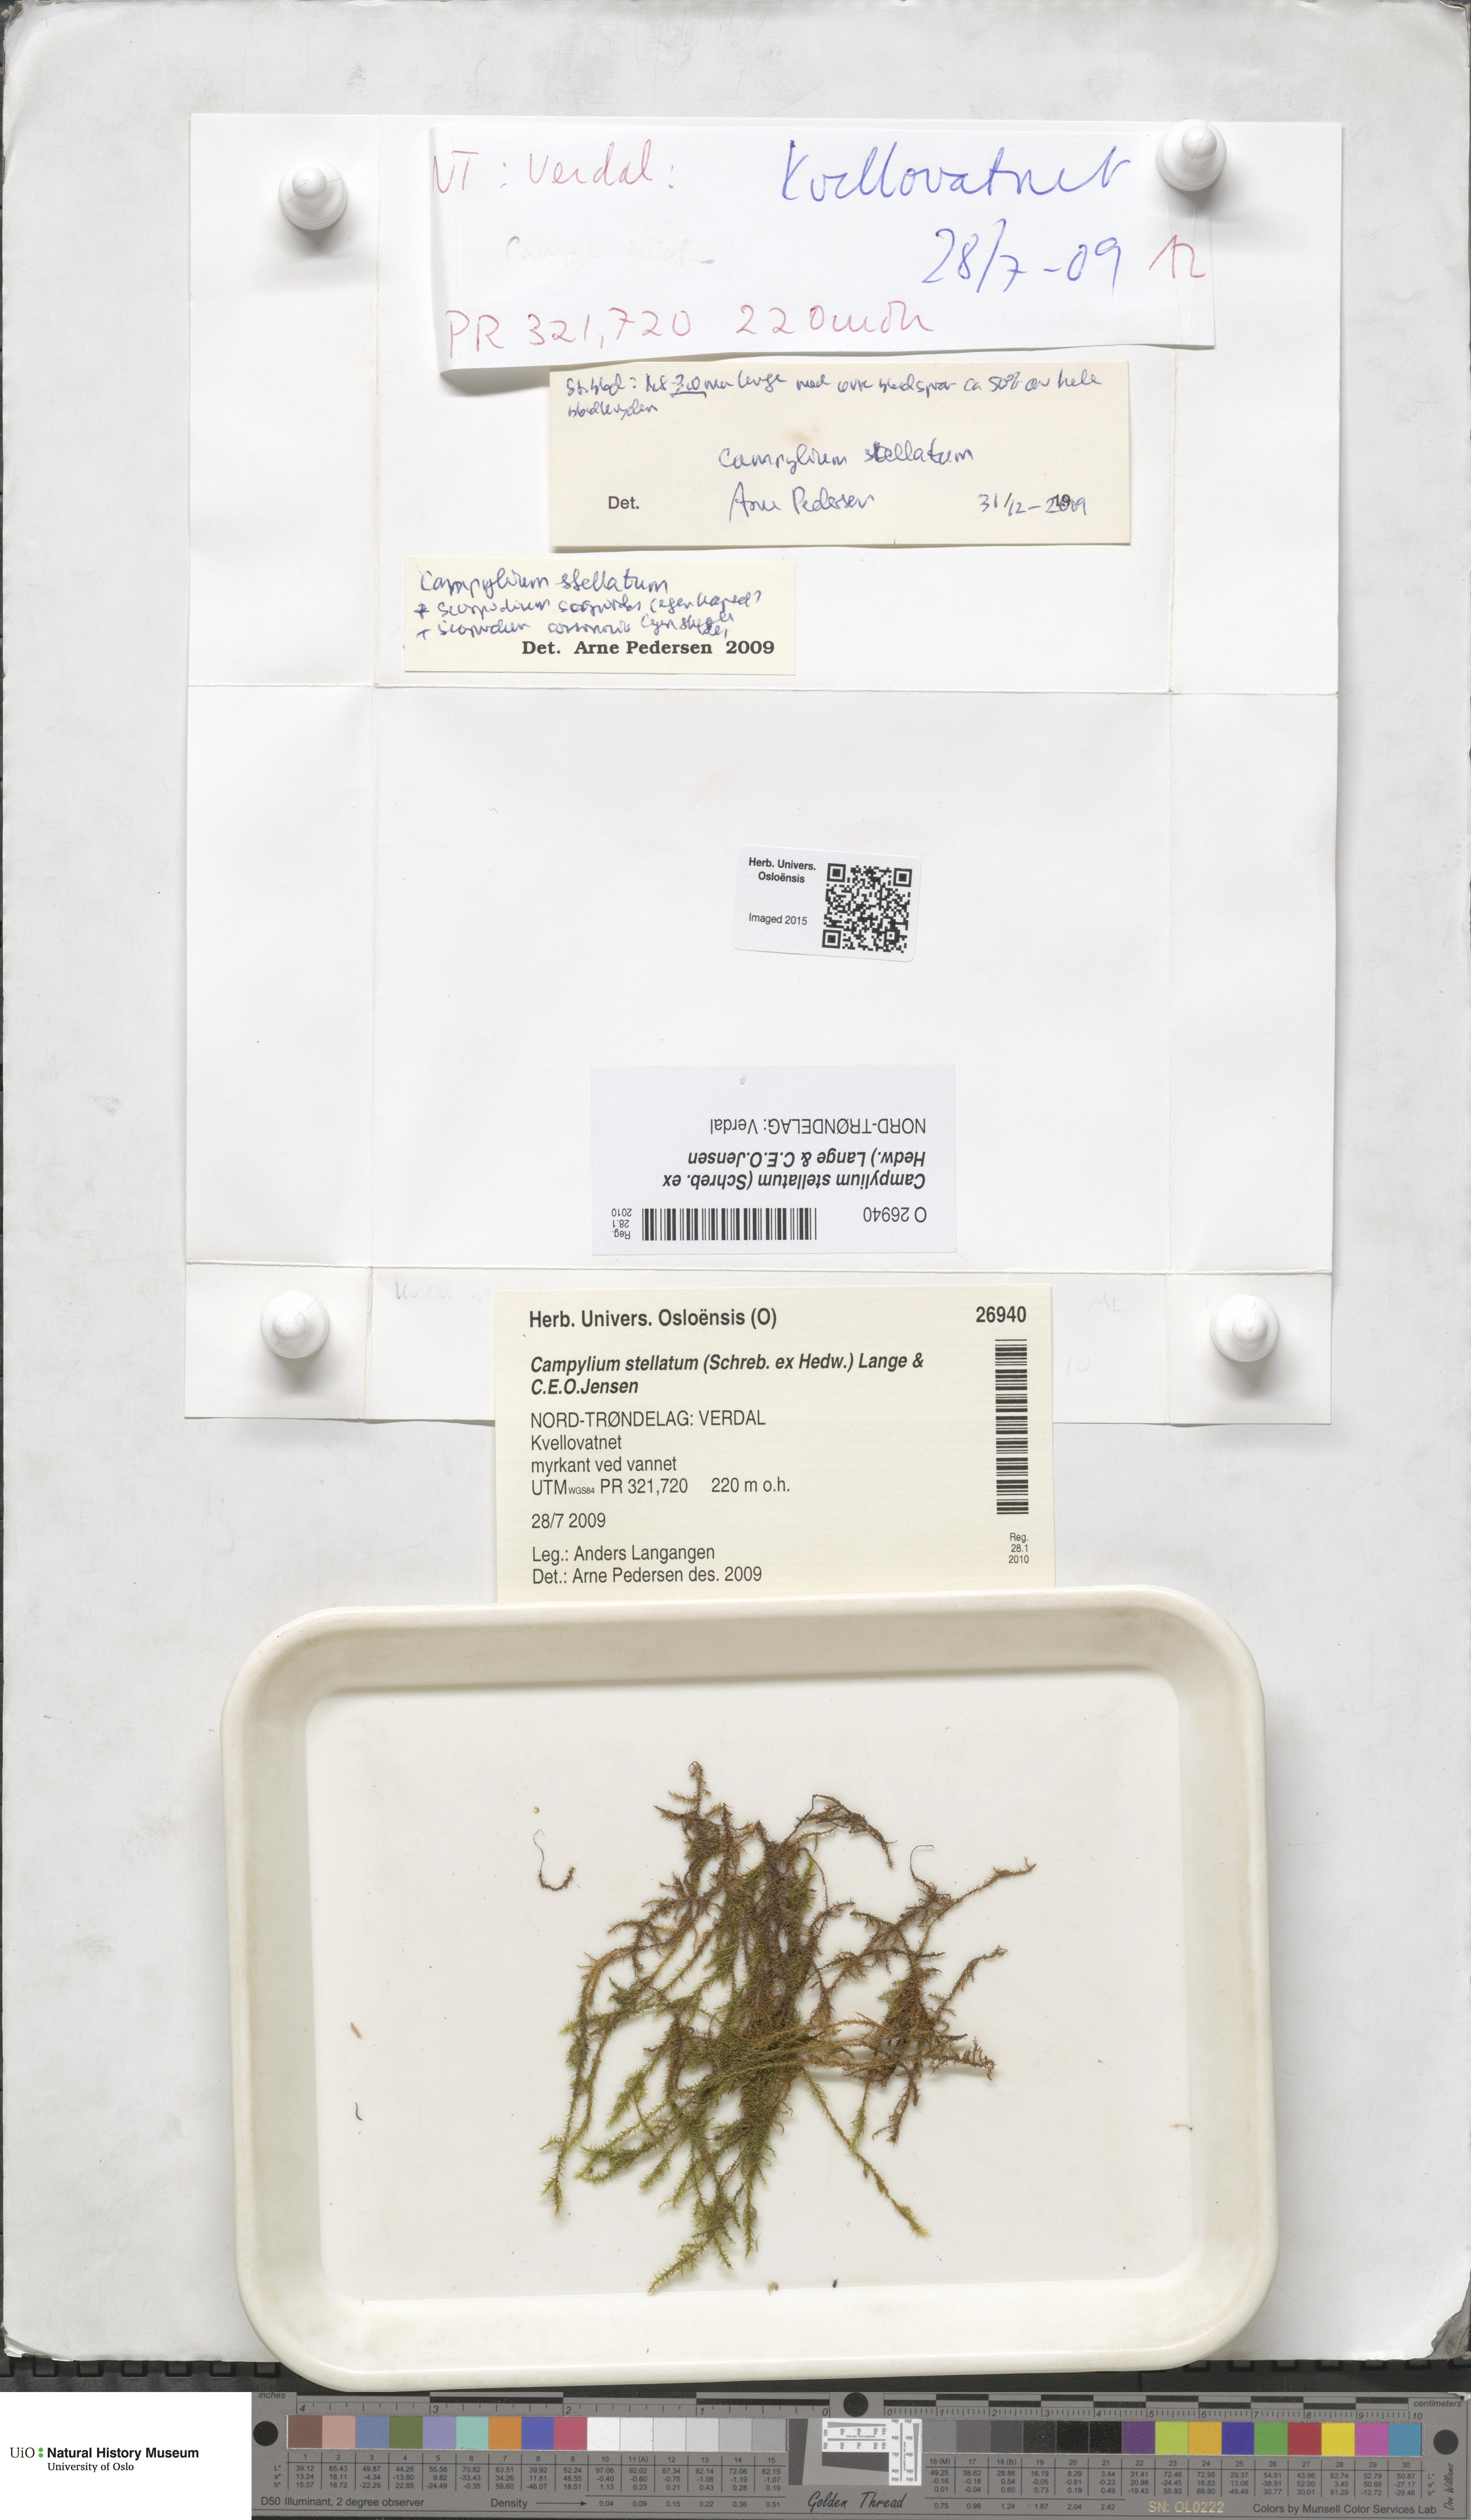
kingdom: Plantae
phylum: Bryophyta
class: Bryopsida
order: Hypnales
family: Amblystegiaceae
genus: Campylium
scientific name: Campylium stellatum
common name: Yellow starry fen moss
